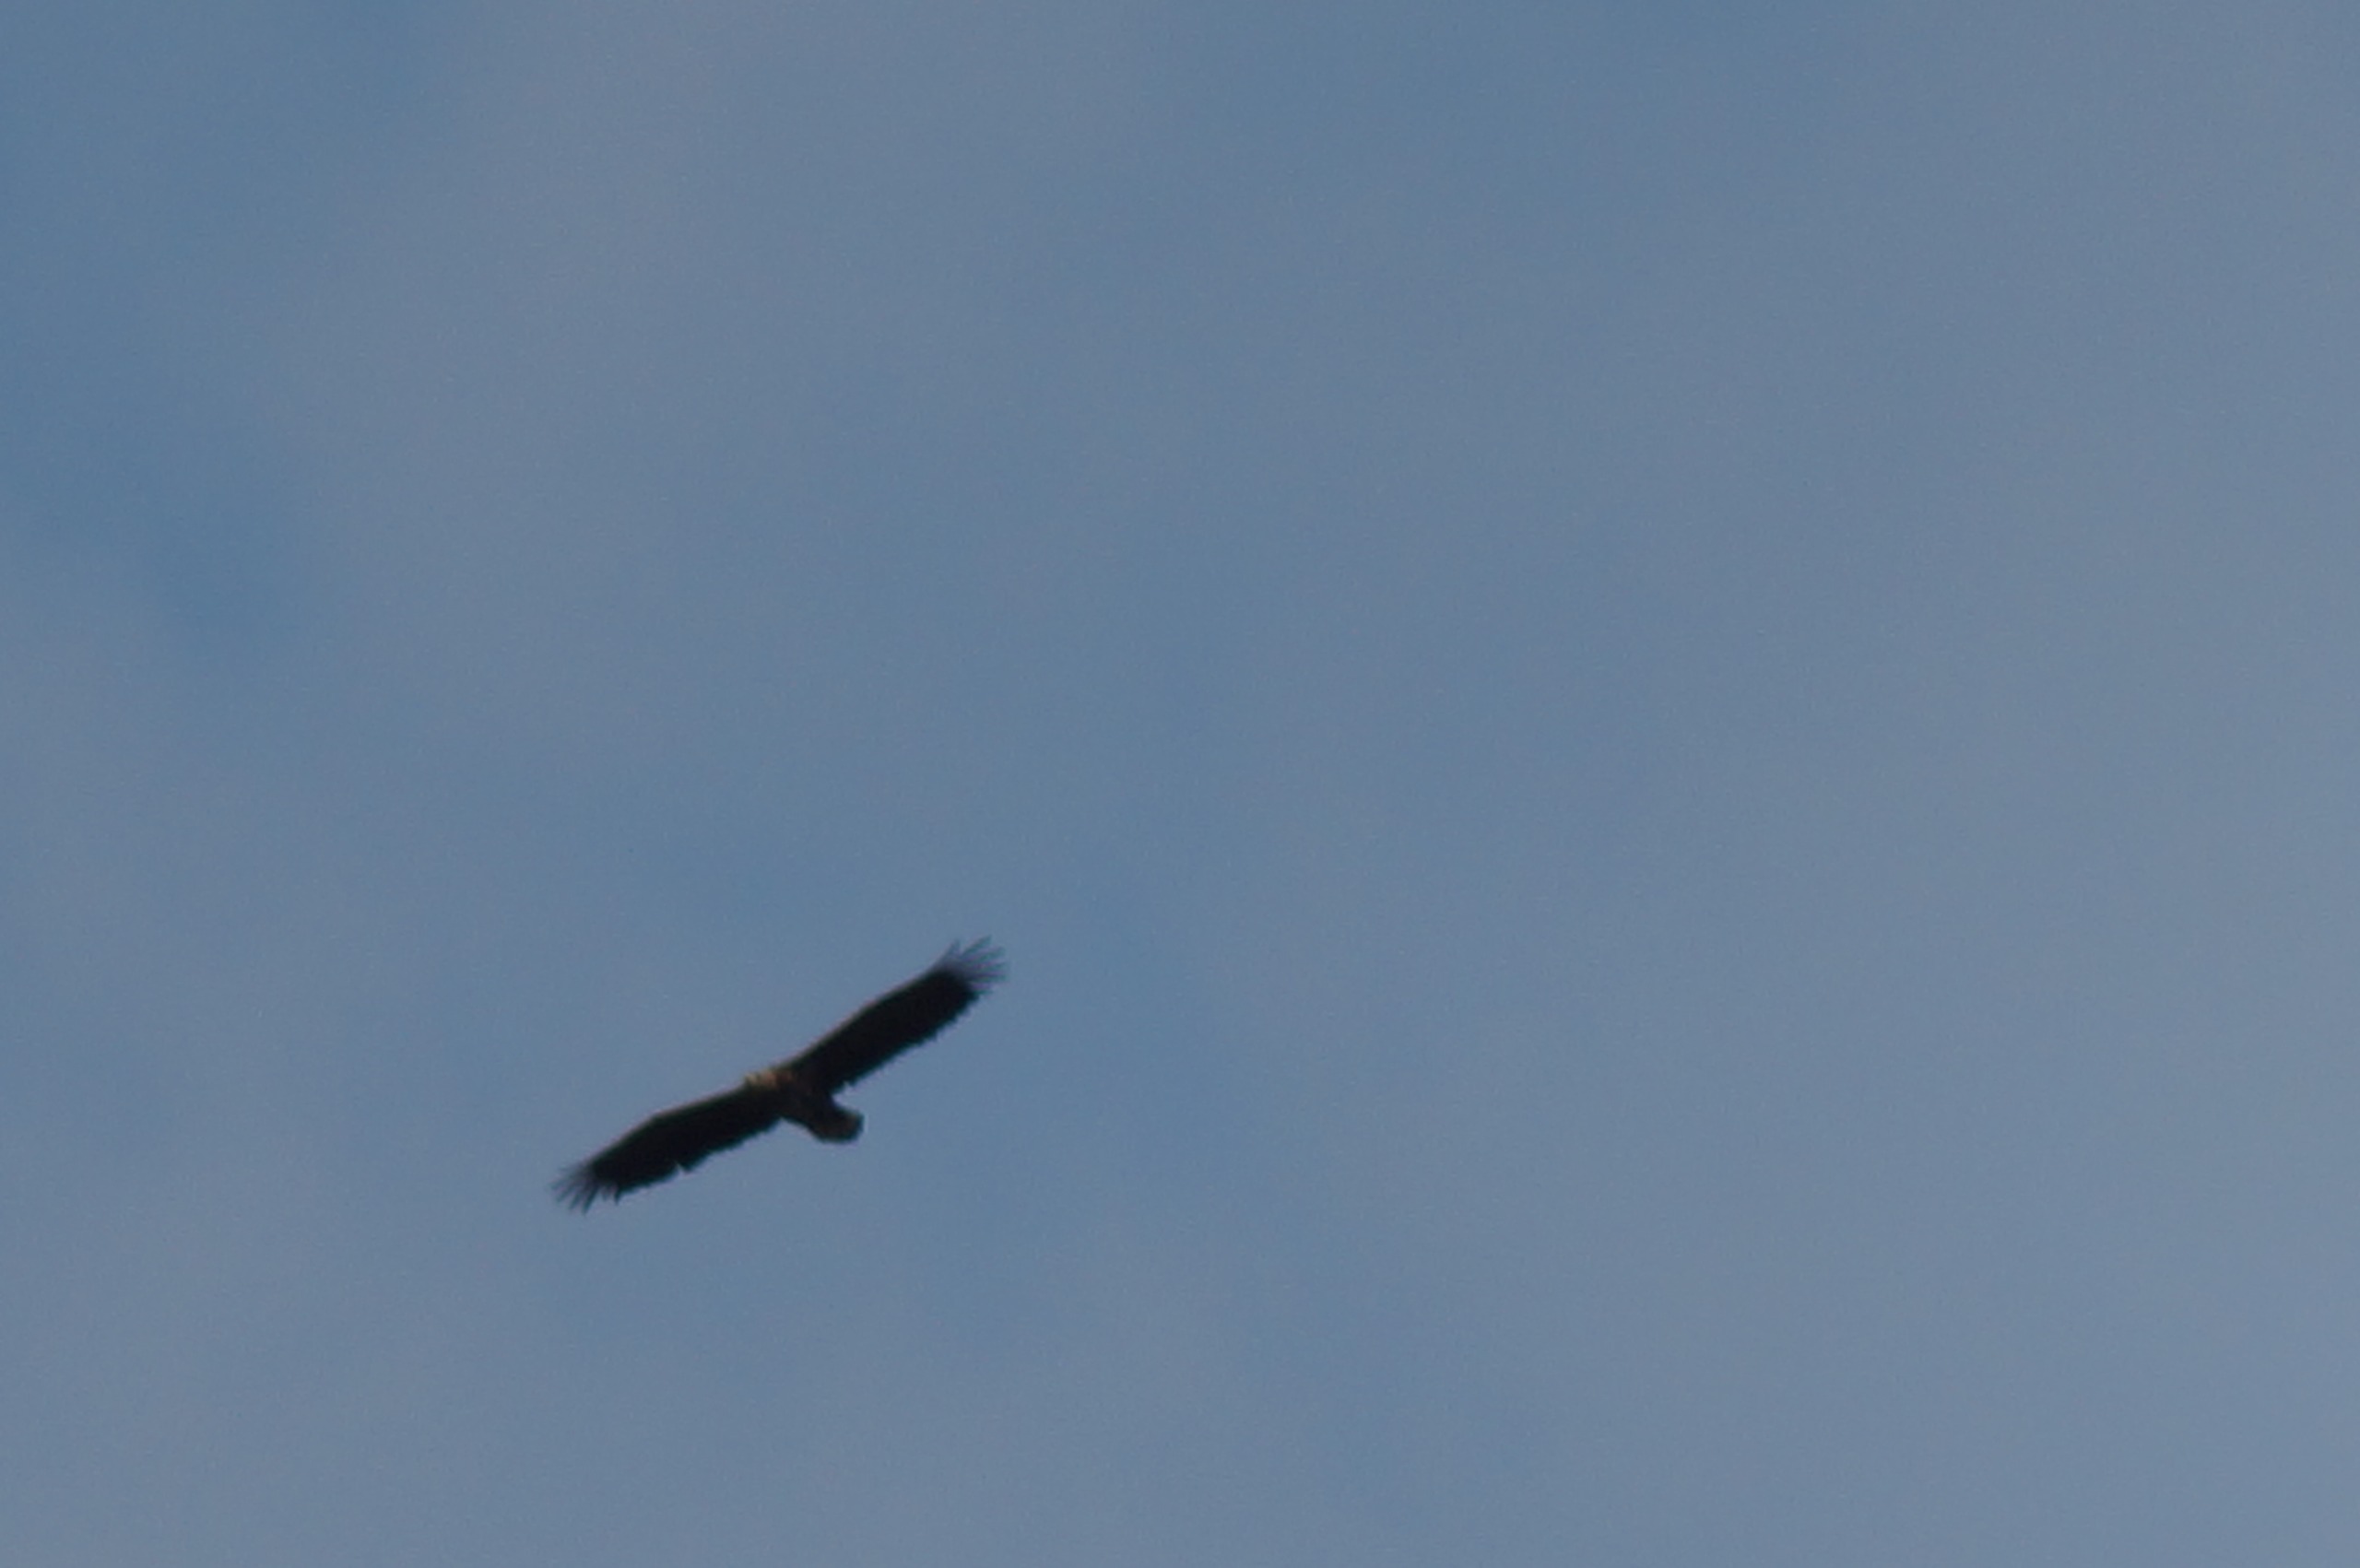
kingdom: Animalia
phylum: Chordata
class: Aves
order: Accipitriformes
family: Accipitridae
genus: Haliaeetus
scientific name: Haliaeetus albicilla
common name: Havørn
